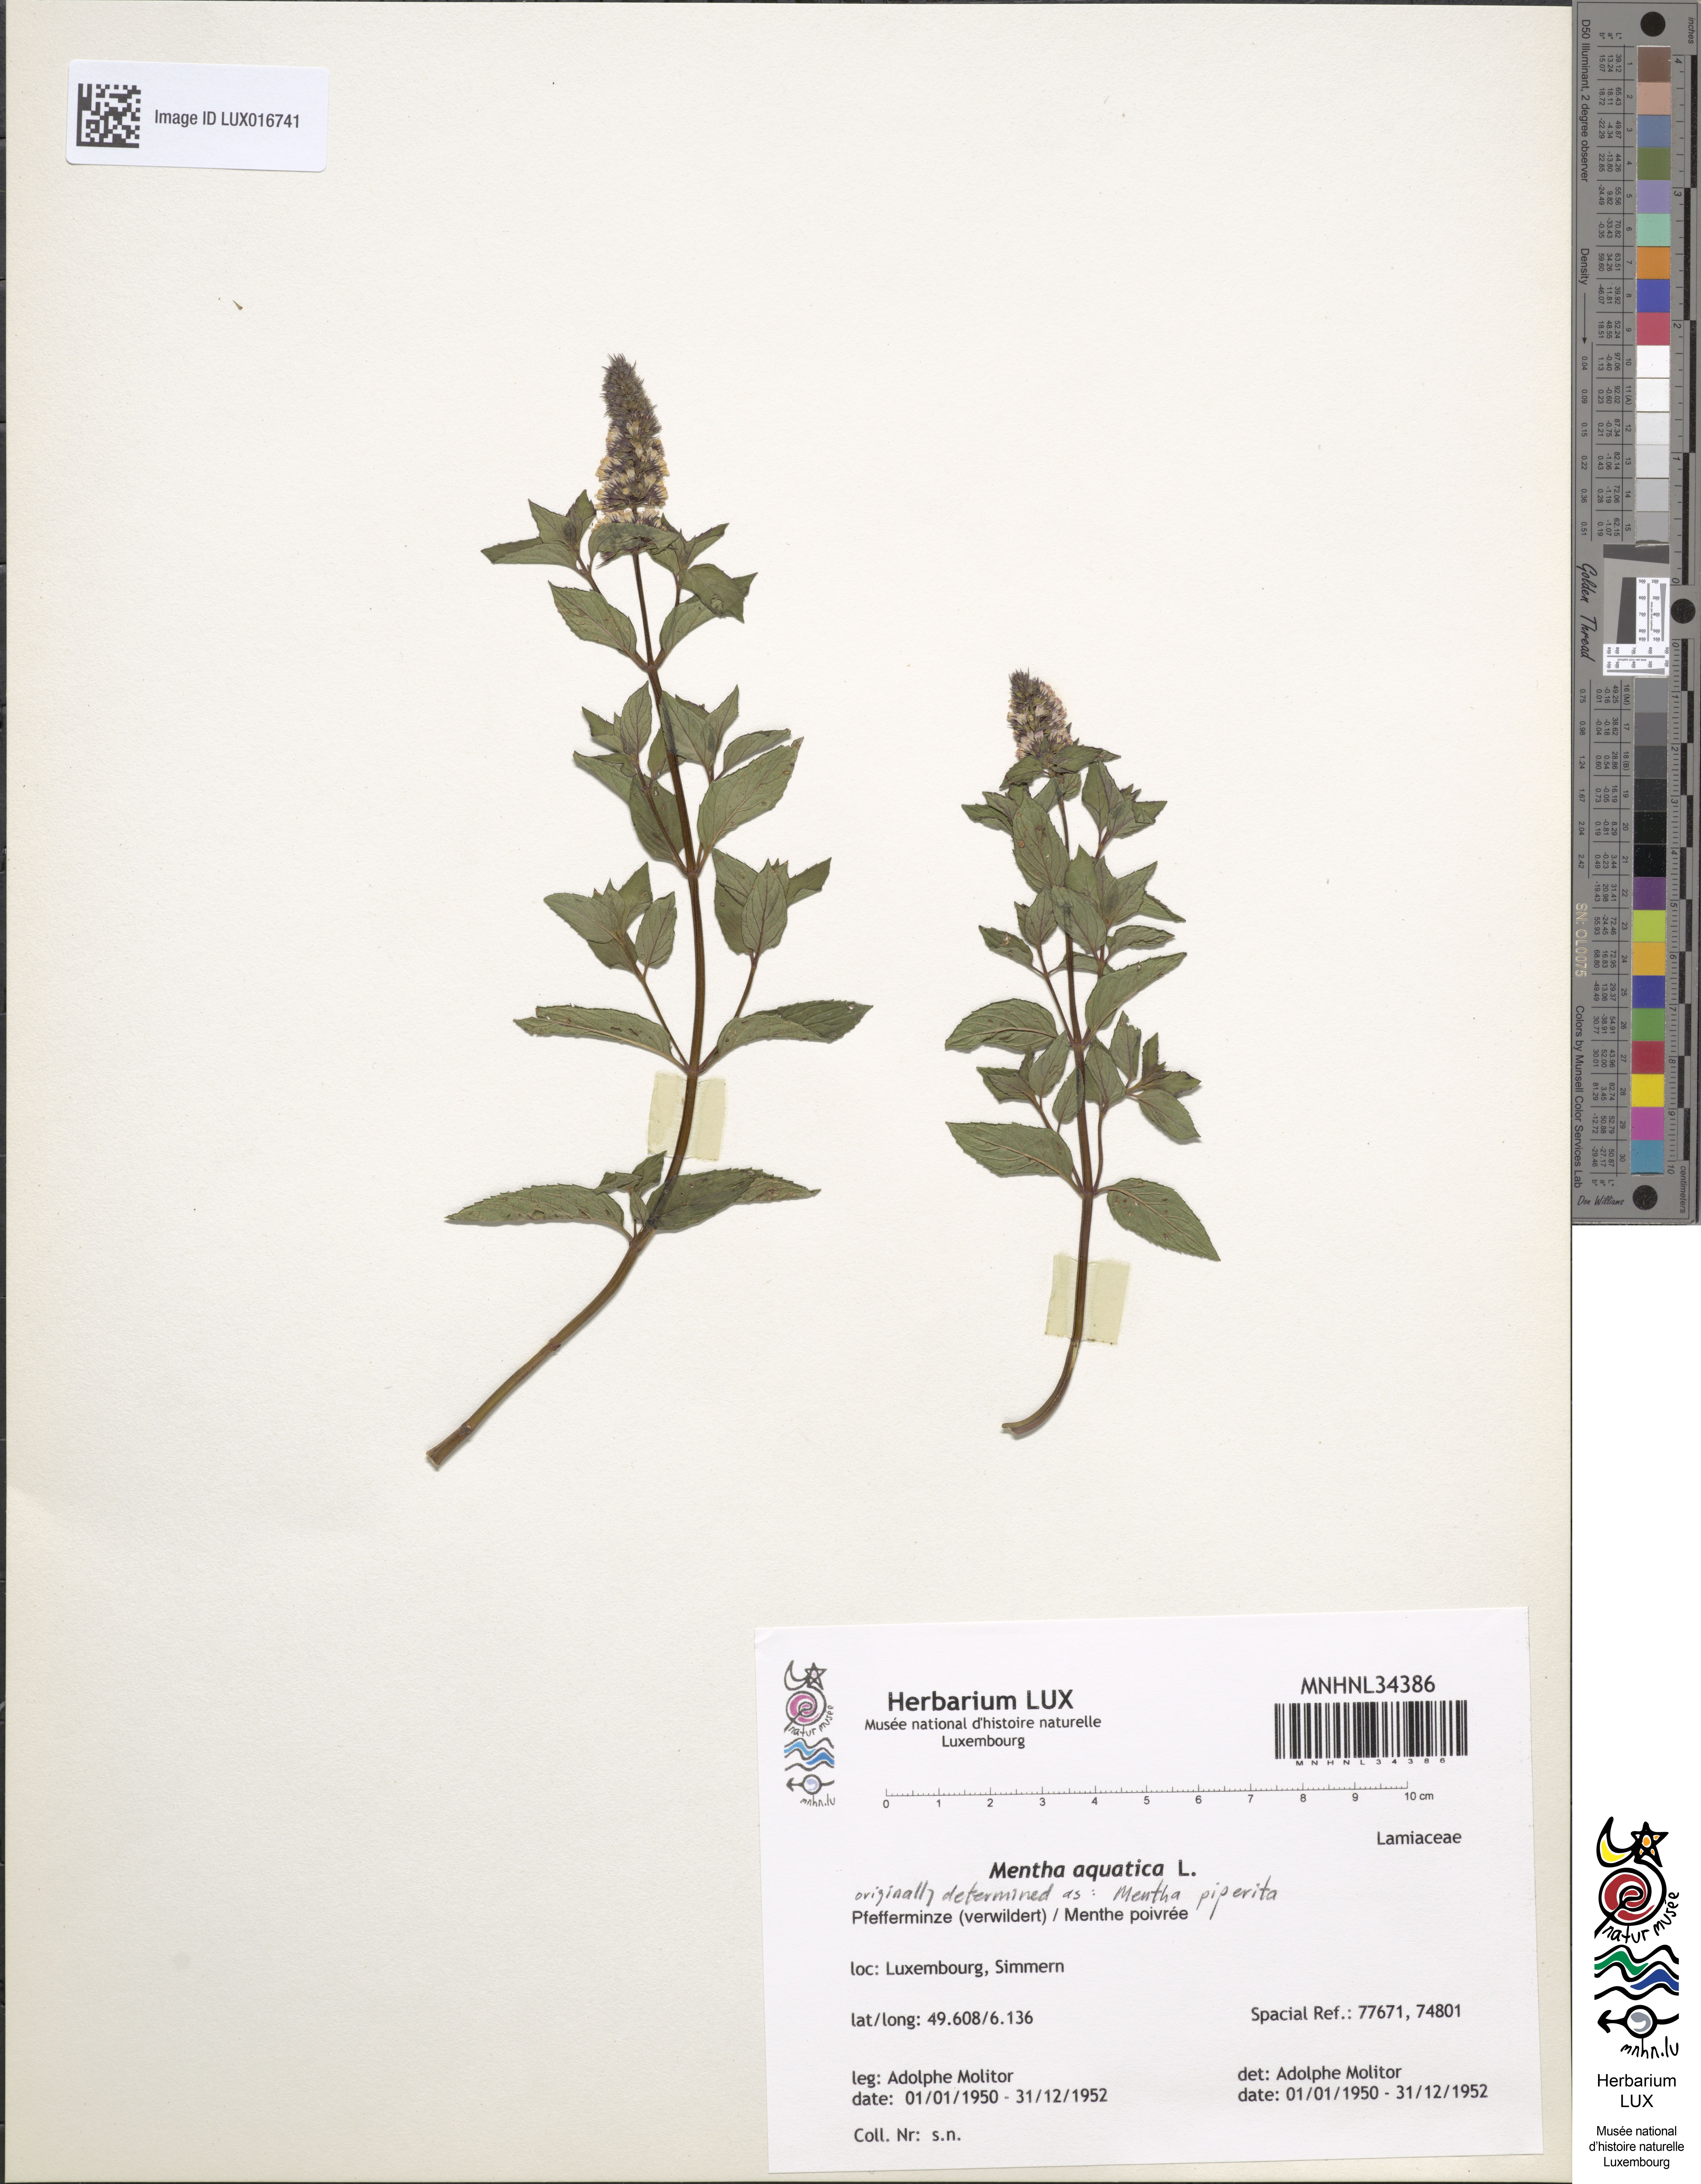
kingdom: Plantae
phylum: Tracheophyta
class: Magnoliopsida
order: Lamiales
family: Lamiaceae
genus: Mentha
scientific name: Mentha aquatica
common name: Water mint
